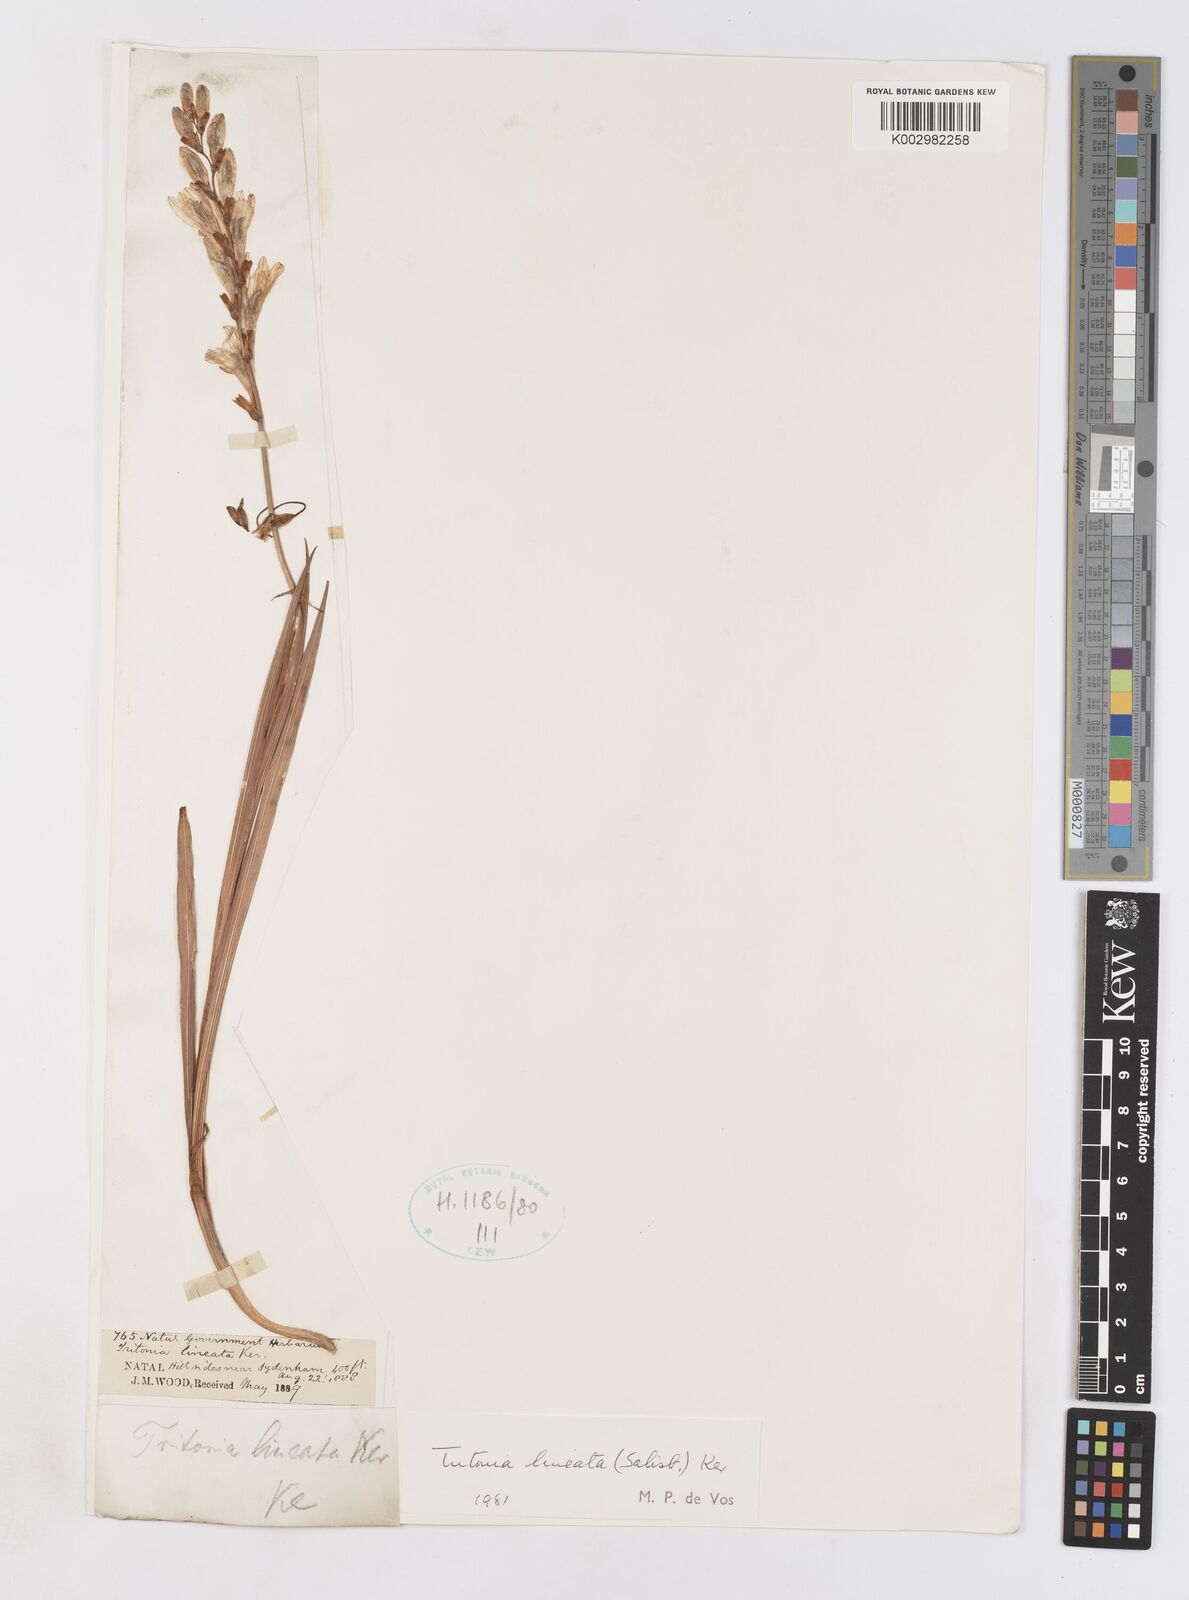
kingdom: Plantae
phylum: Tracheophyta
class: Liliopsida
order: Asparagales
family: Iridaceae
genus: Tritonia
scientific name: Tritonia gladiolaris
